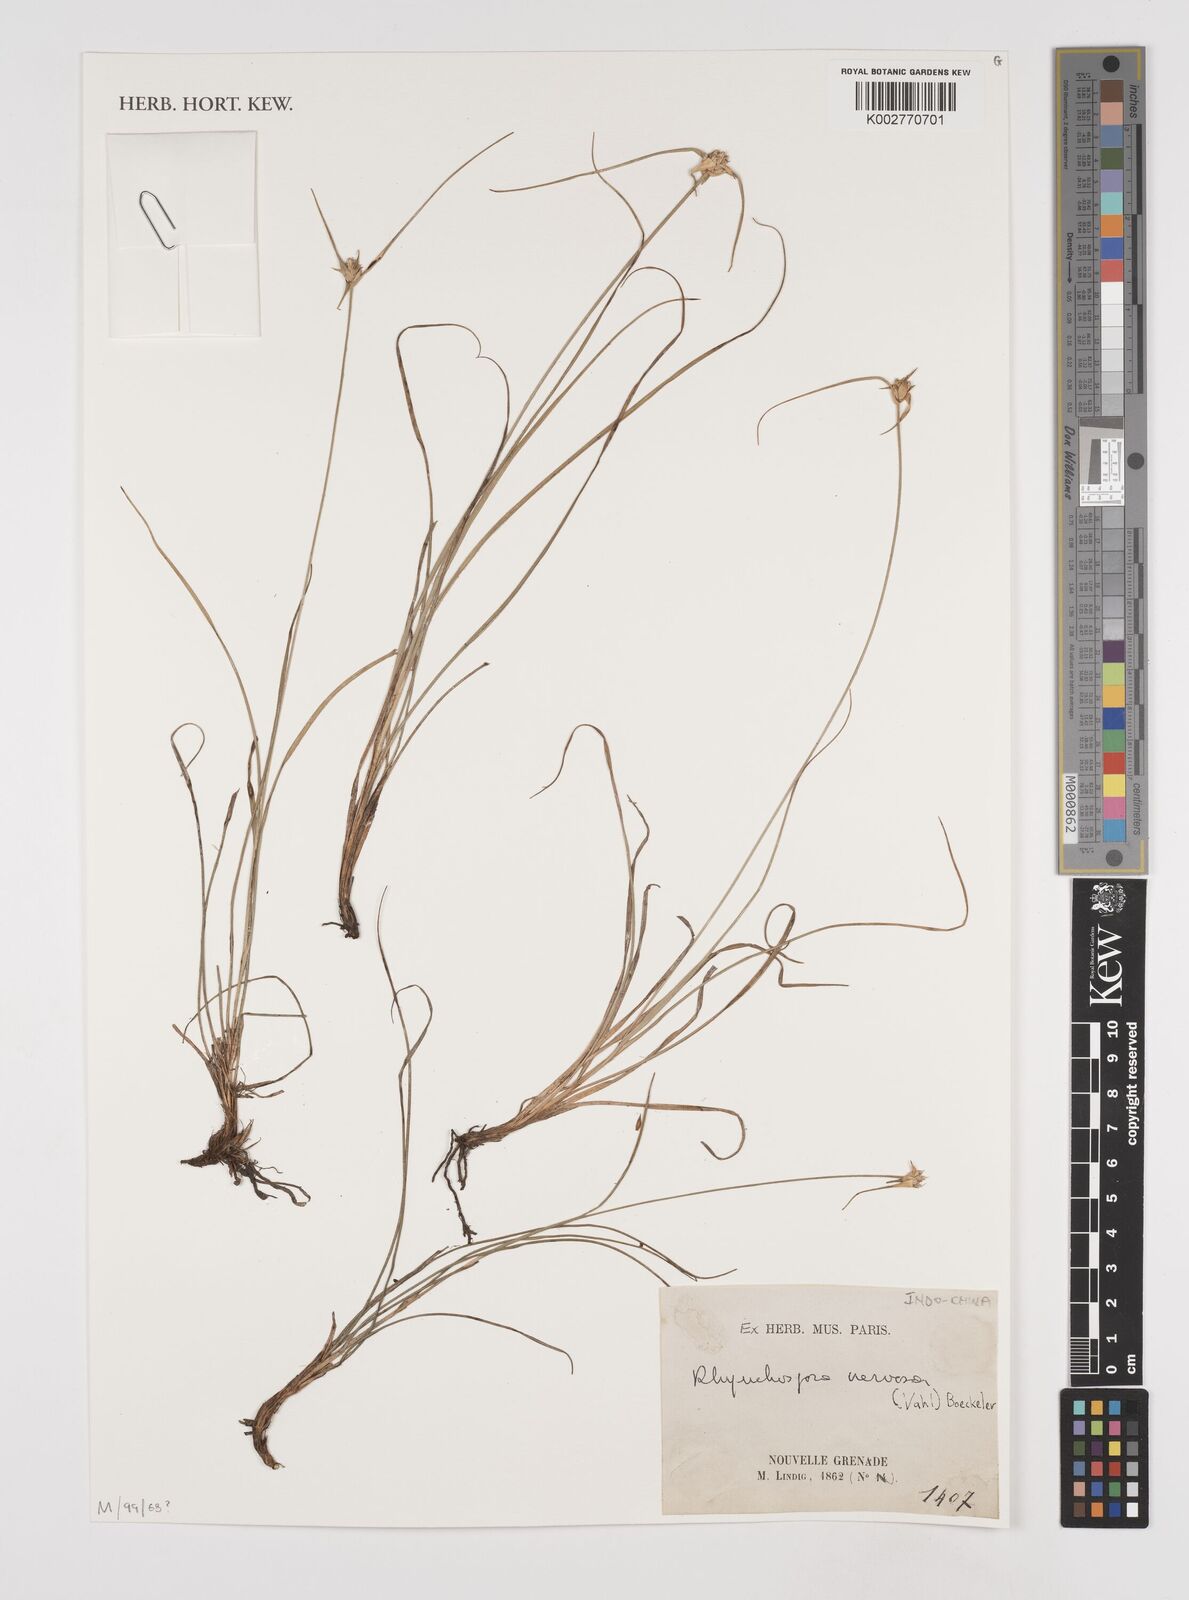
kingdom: Plantae
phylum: Tracheophyta
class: Liliopsida
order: Poales
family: Cyperaceae
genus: Rhynchospora
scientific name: Rhynchospora nervosa
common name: Star sedge
